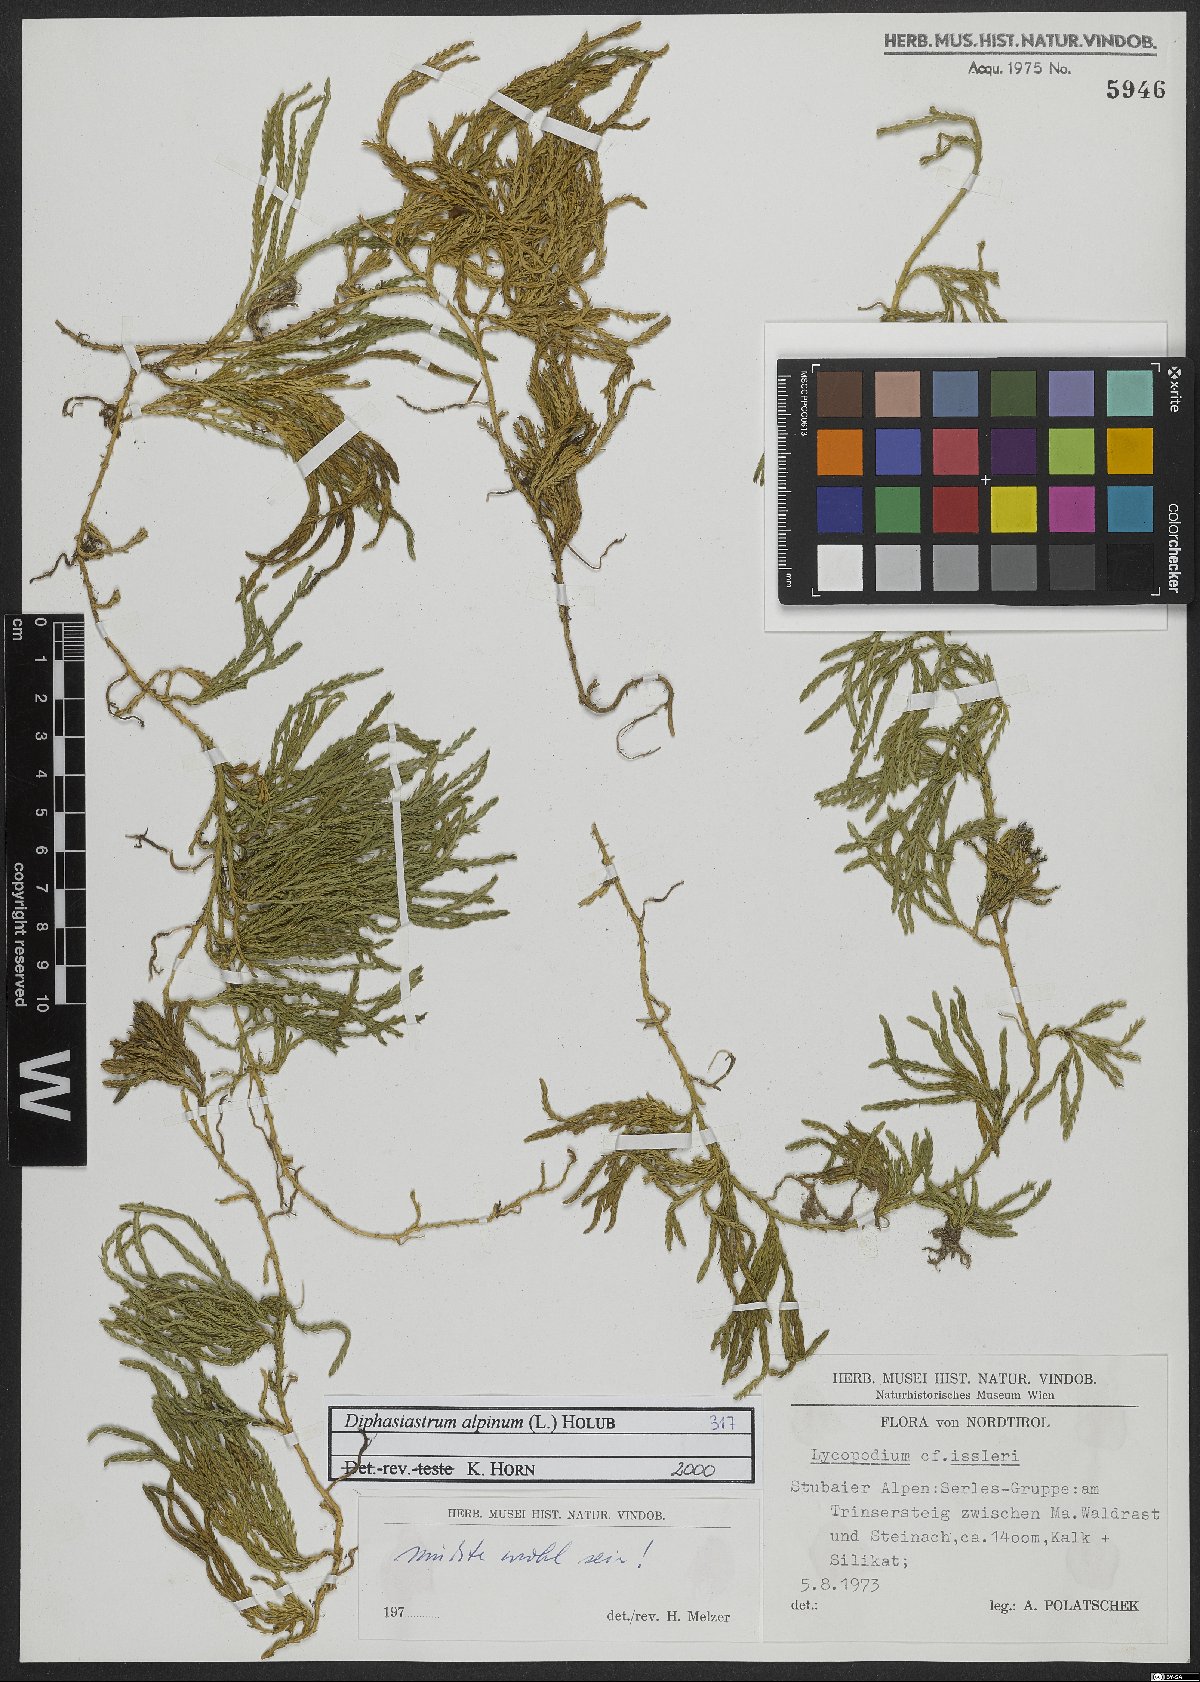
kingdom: Plantae
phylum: Tracheophyta
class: Lycopodiopsida
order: Lycopodiales
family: Lycopodiaceae
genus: Diphasiastrum
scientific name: Diphasiastrum alpinum
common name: Alpine clubmoss
